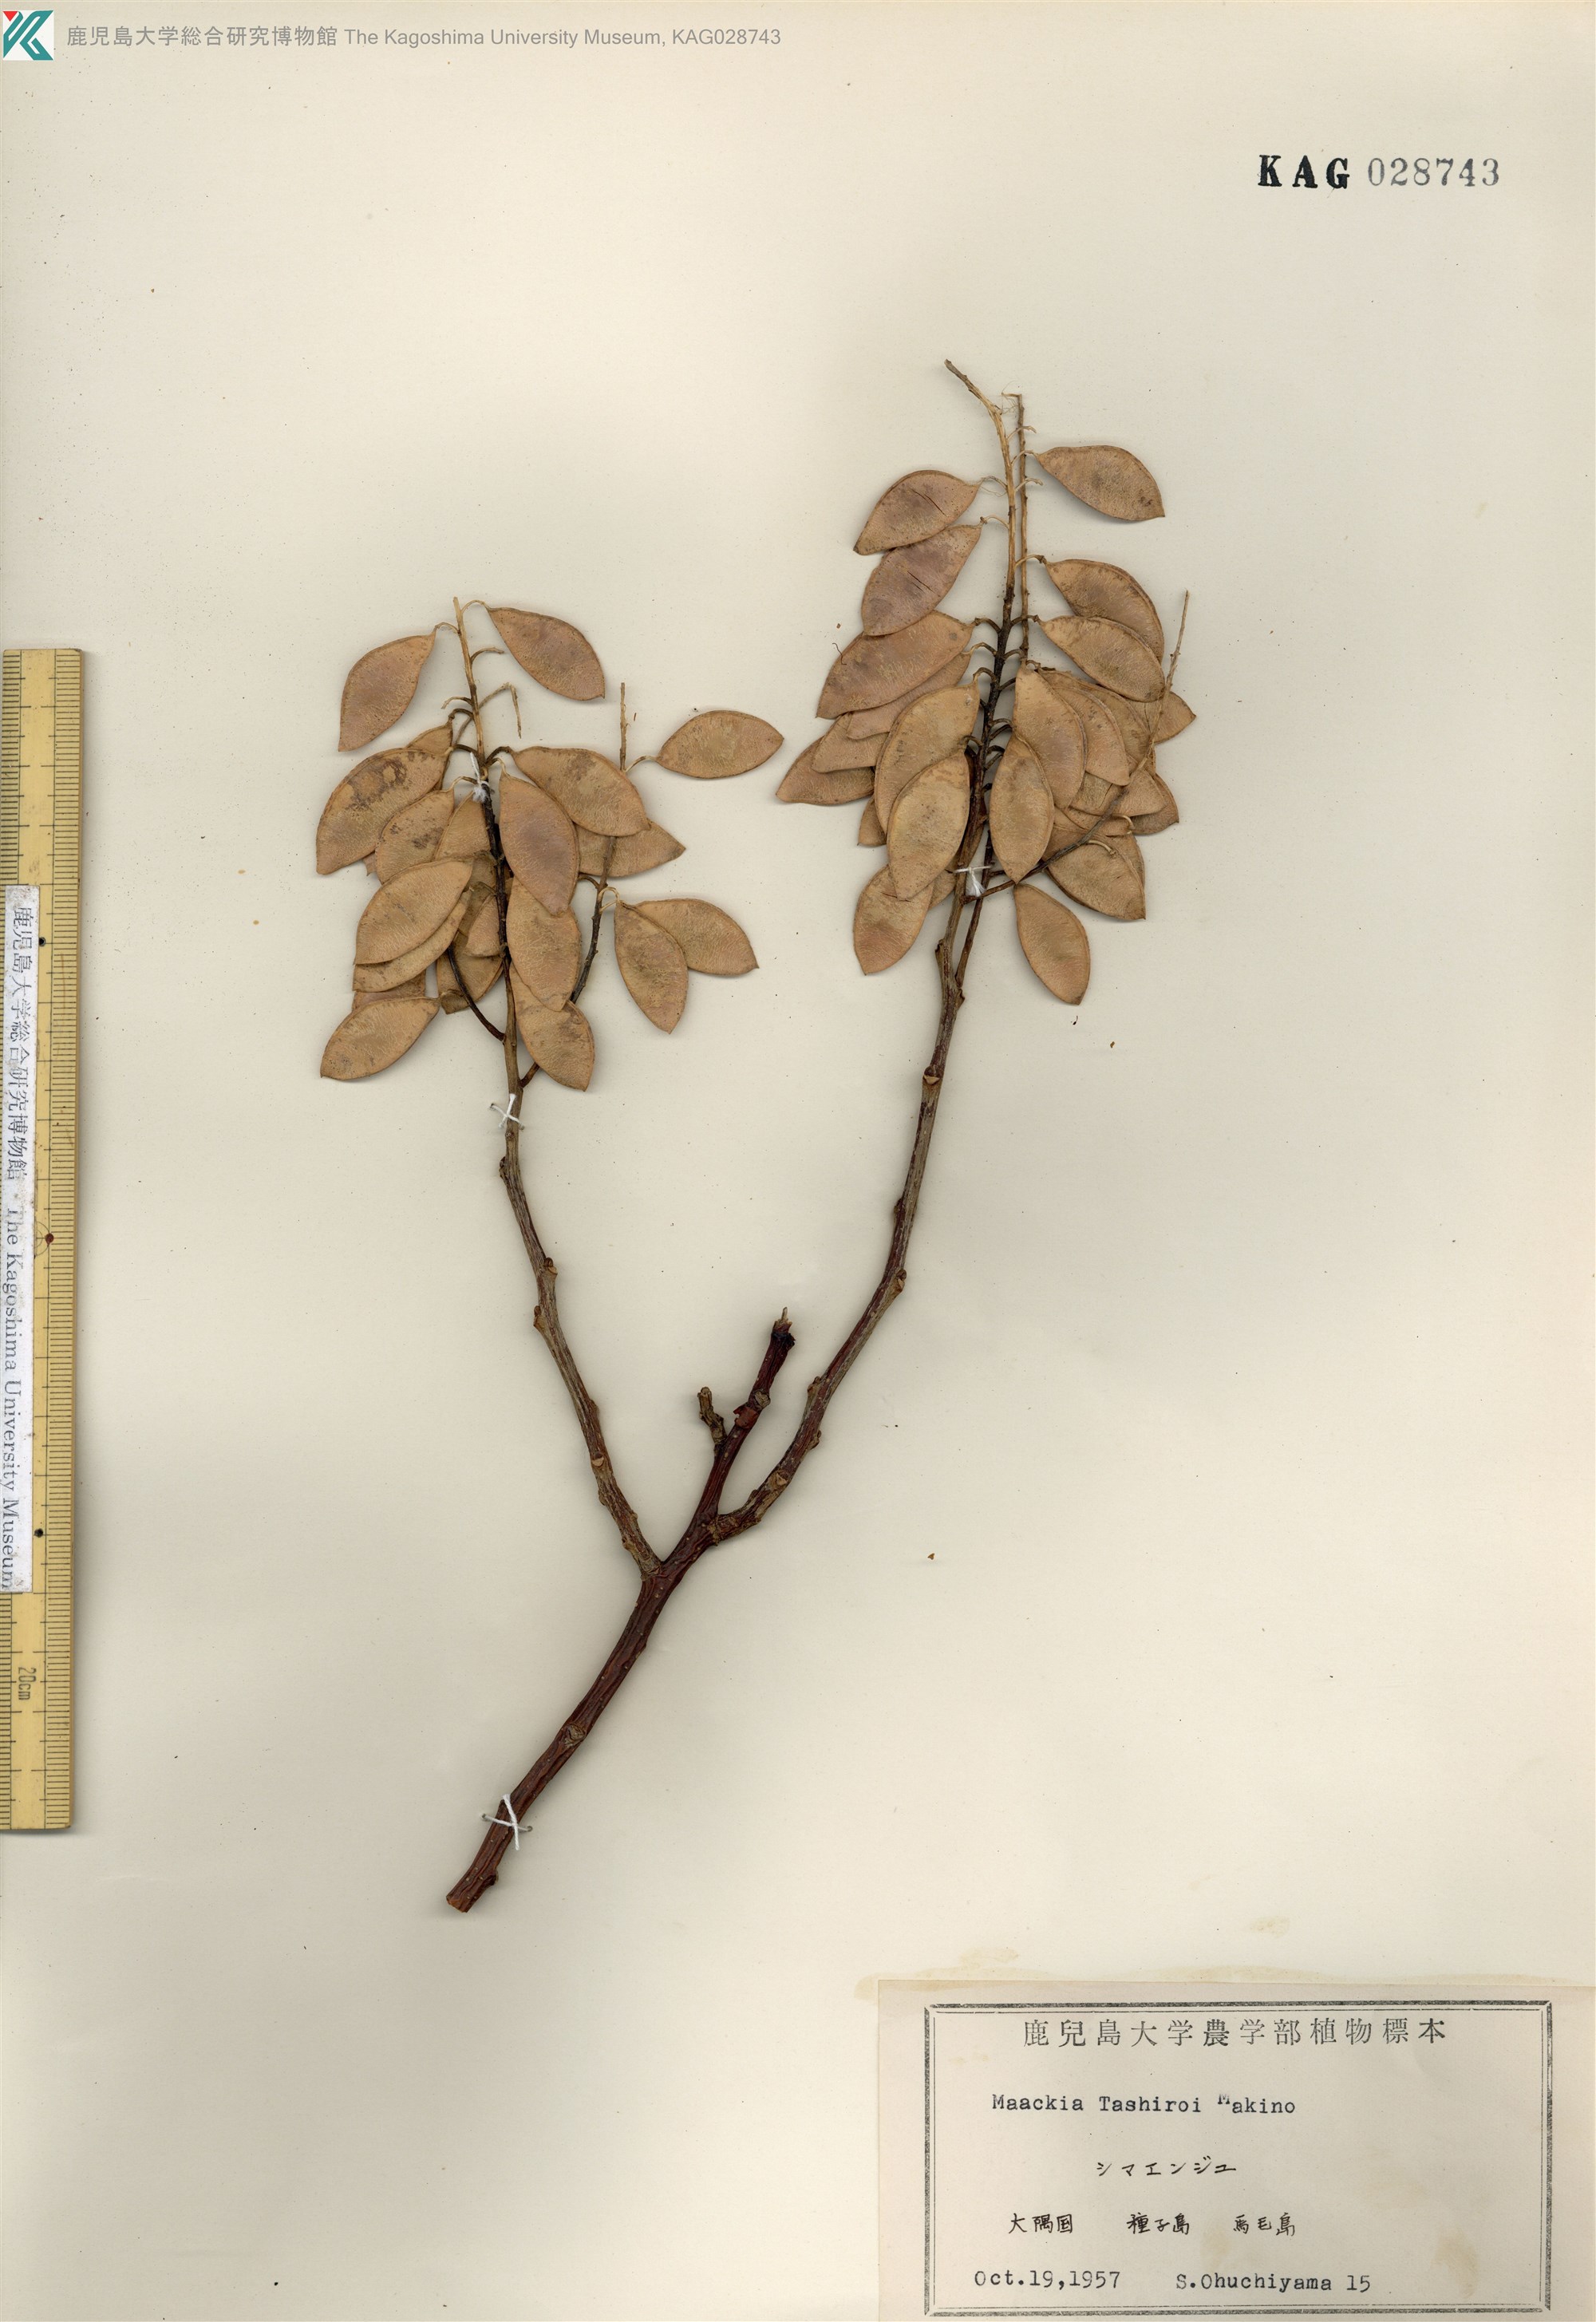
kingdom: Plantae
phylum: Tracheophyta
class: Magnoliopsida
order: Fabales
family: Fabaceae
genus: Maackia
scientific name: Maackia tashiroi
